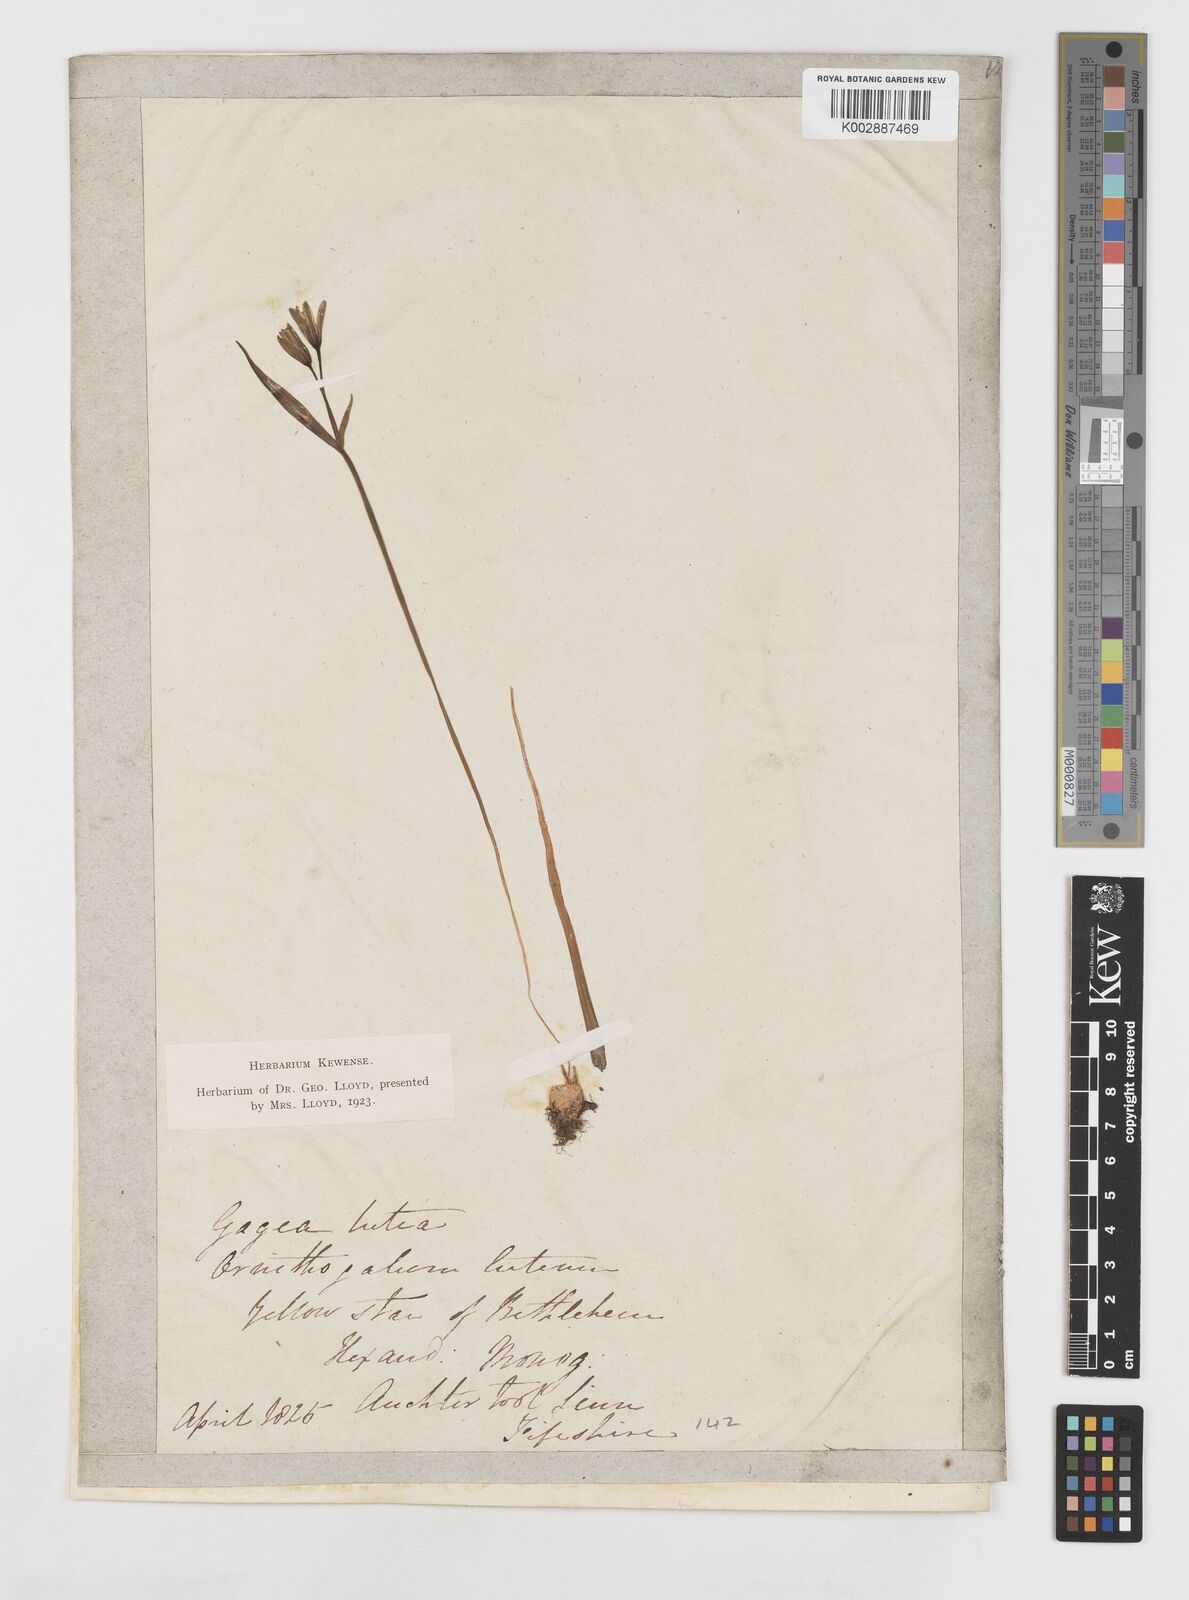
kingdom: Plantae
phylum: Tracheophyta
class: Liliopsida
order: Liliales
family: Liliaceae
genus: Gagea
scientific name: Gagea lutea
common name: Yellow star-of-bethlehem
